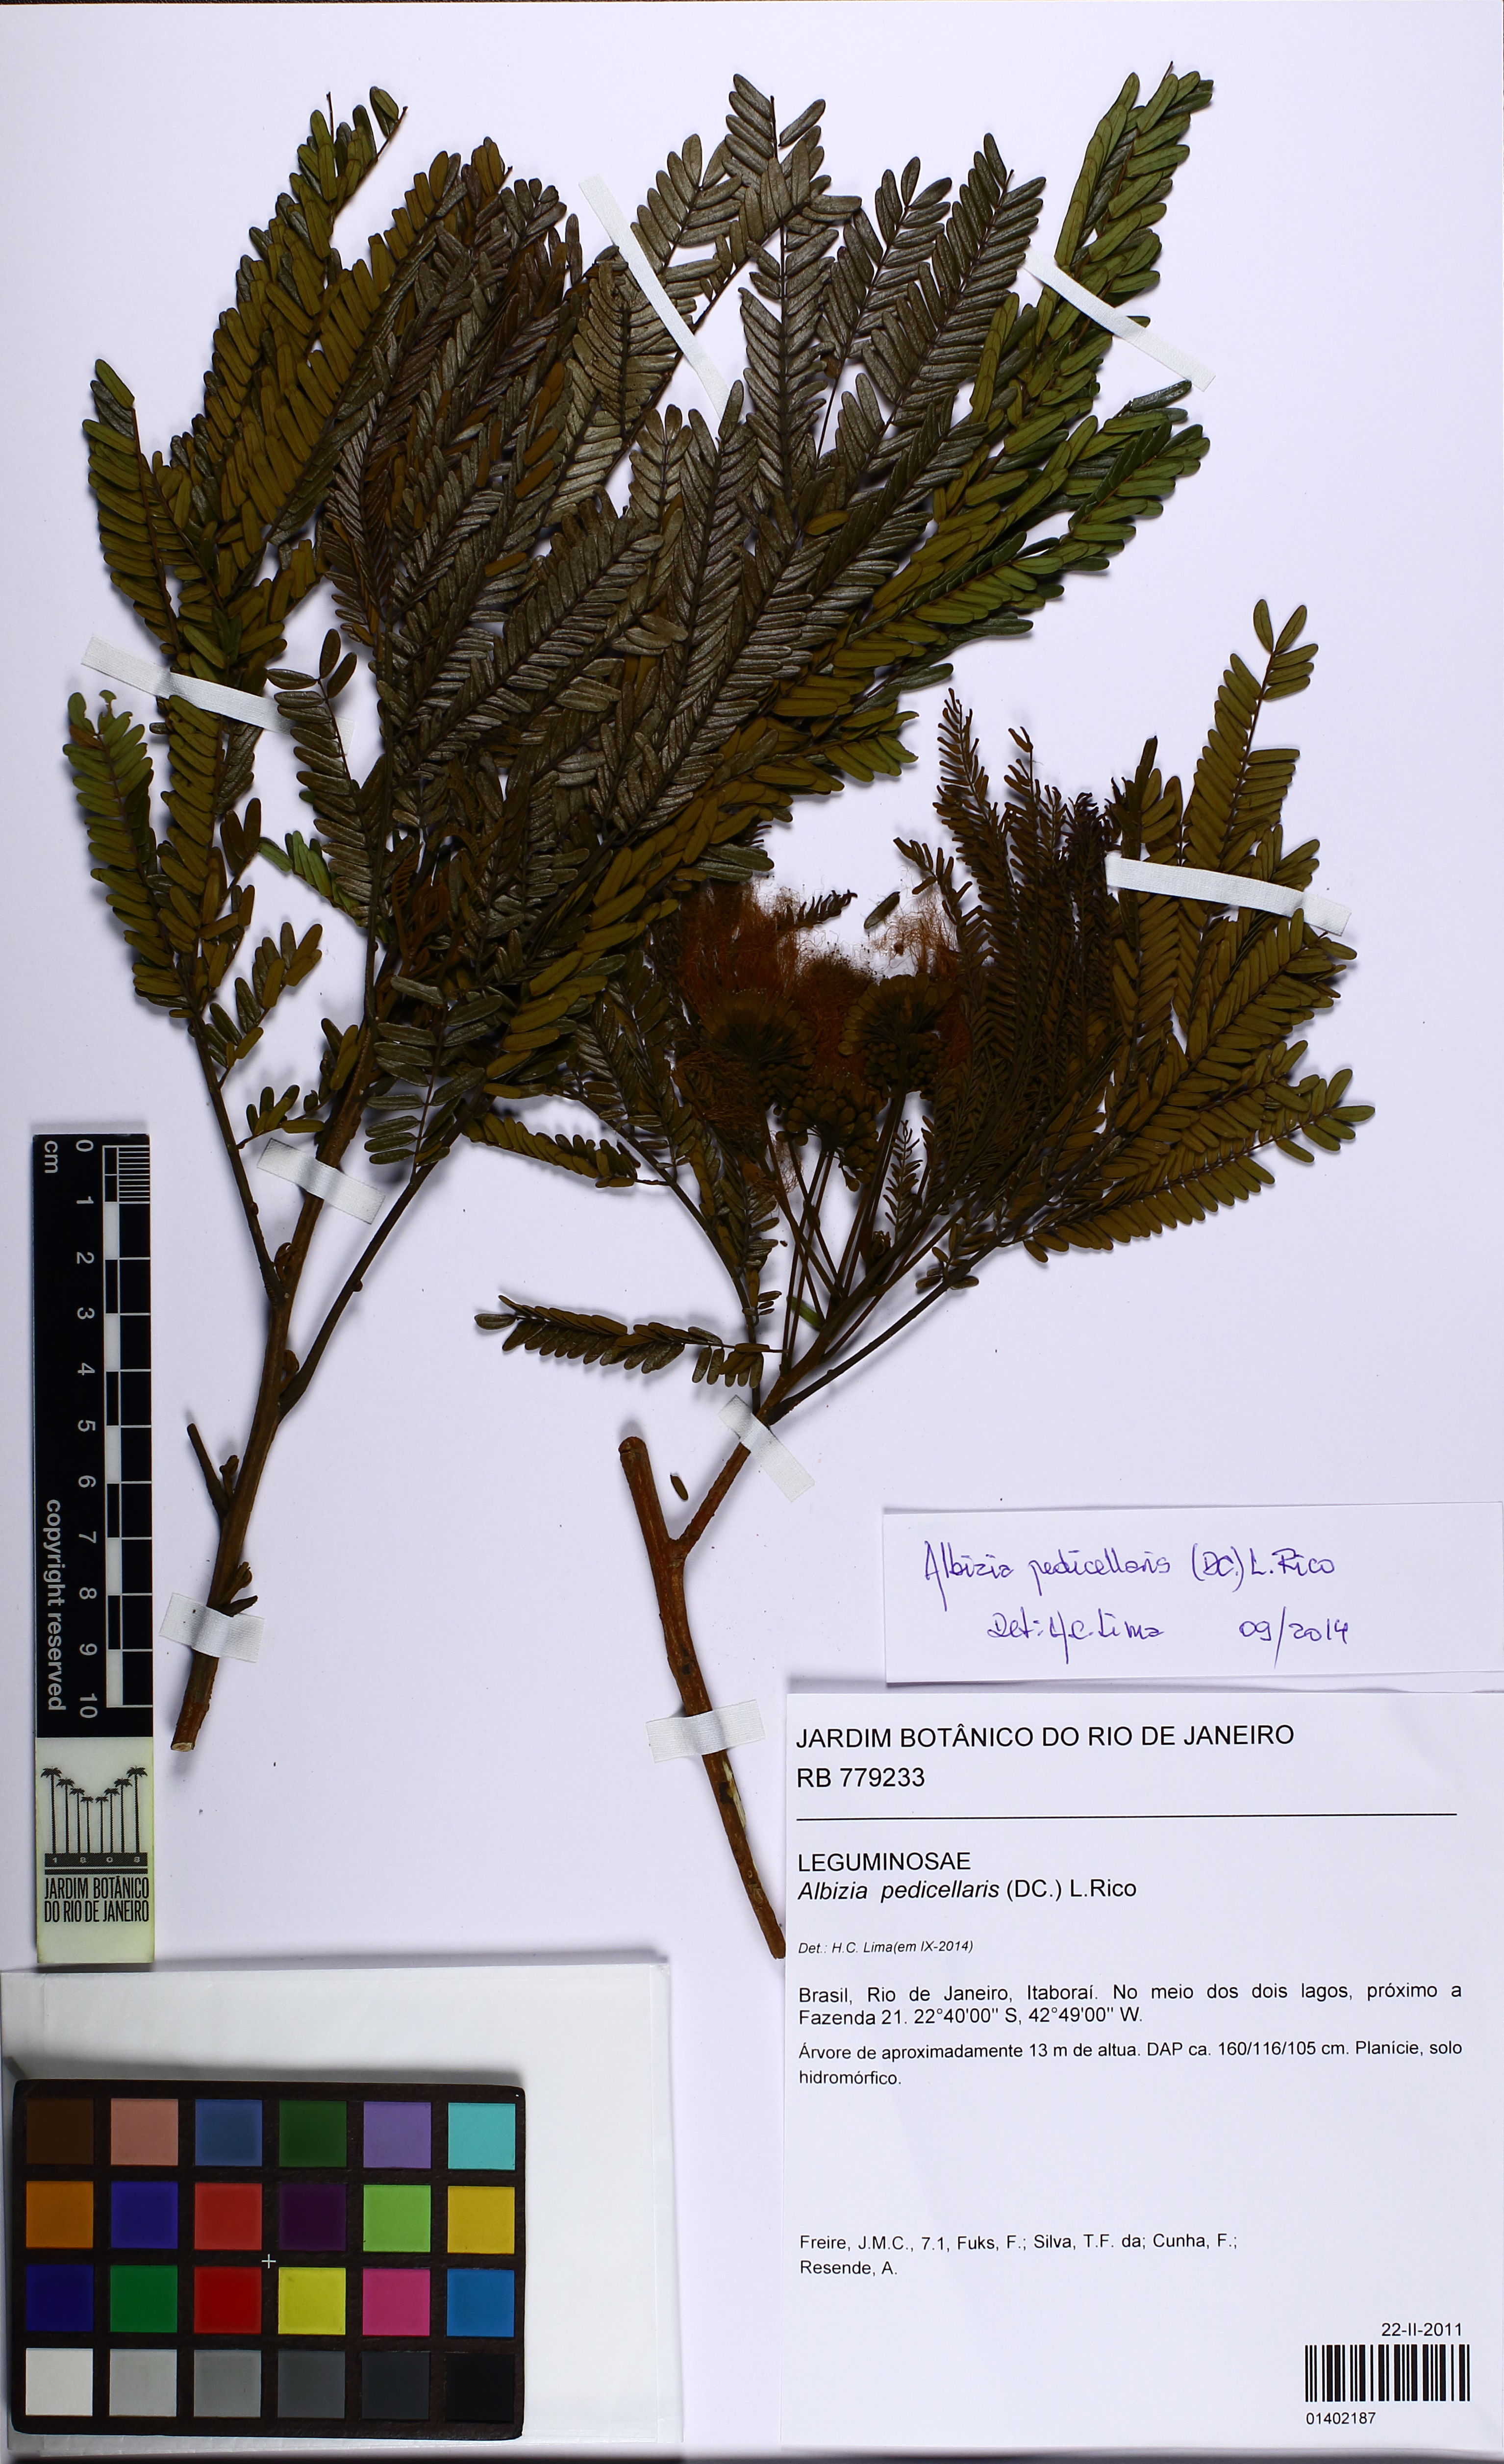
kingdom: Plantae
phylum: Tracheophyta
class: Magnoliopsida
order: Fabales
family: Fabaceae
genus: Balizia
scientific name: Balizia pedicellaris
